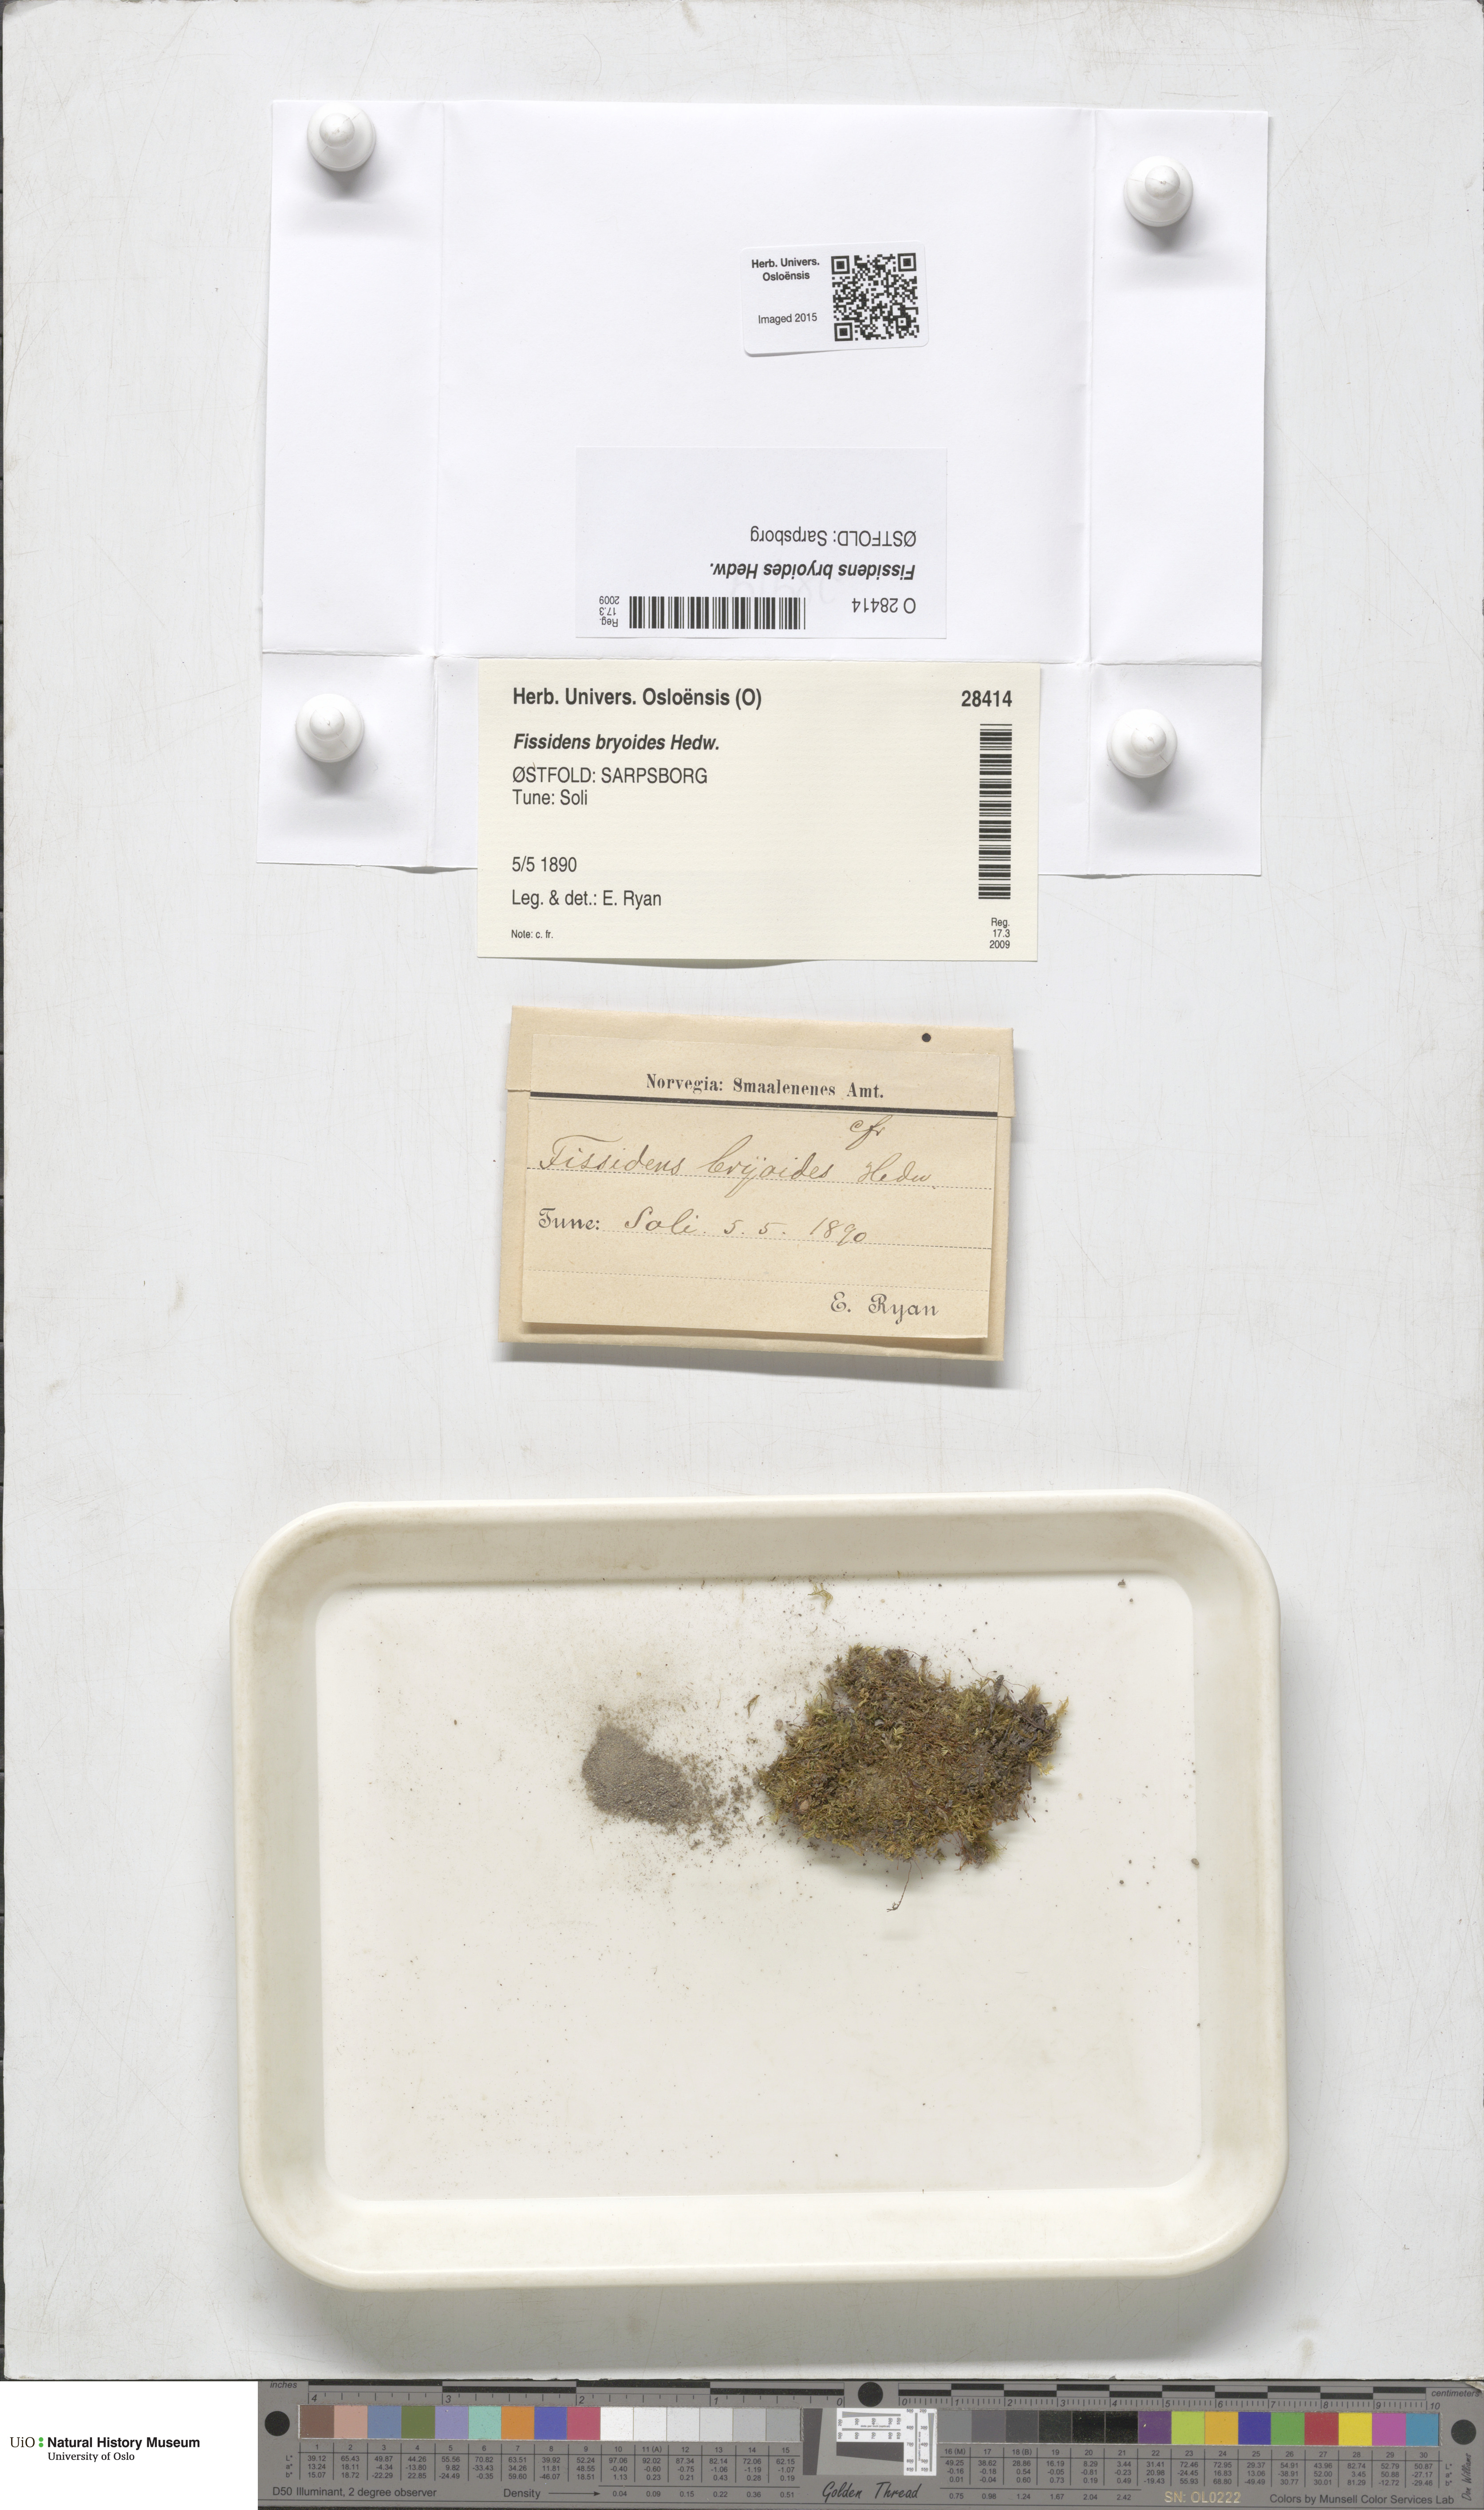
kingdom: Plantae
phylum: Bryophyta
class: Bryopsida
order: Dicranales
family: Fissidentaceae
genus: Fissidens
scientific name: Fissidens bryoides
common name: Lesser pocket moss
